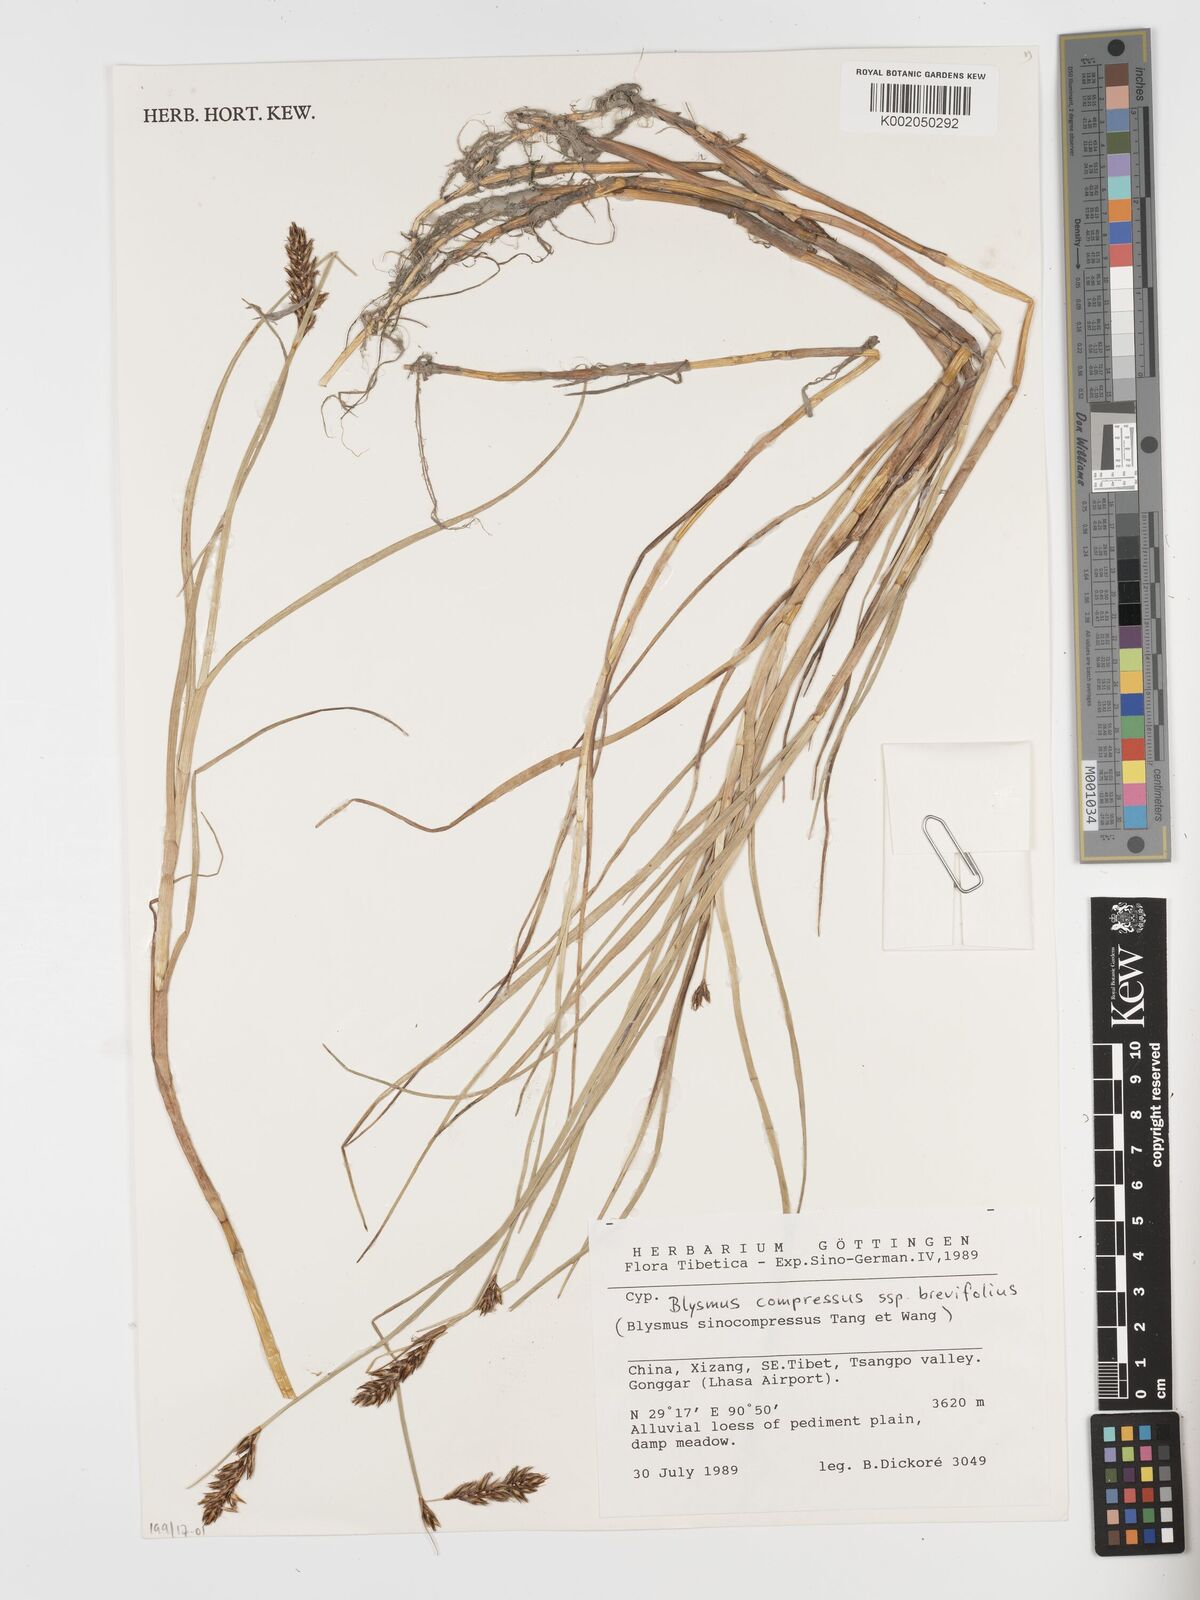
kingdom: Plantae
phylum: Tracheophyta
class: Liliopsida
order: Poales
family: Cyperaceae
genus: Blysmus
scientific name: Blysmus compressus
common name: Flat-sedge
